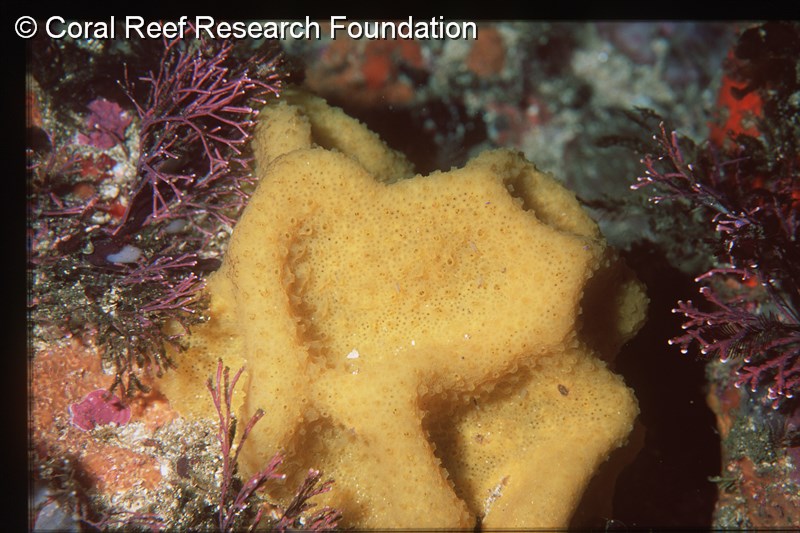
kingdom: Animalia
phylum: Chordata
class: Ascidiacea
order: Aplousobranchia
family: Polyclinidae
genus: Synoicum
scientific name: Synoicum
